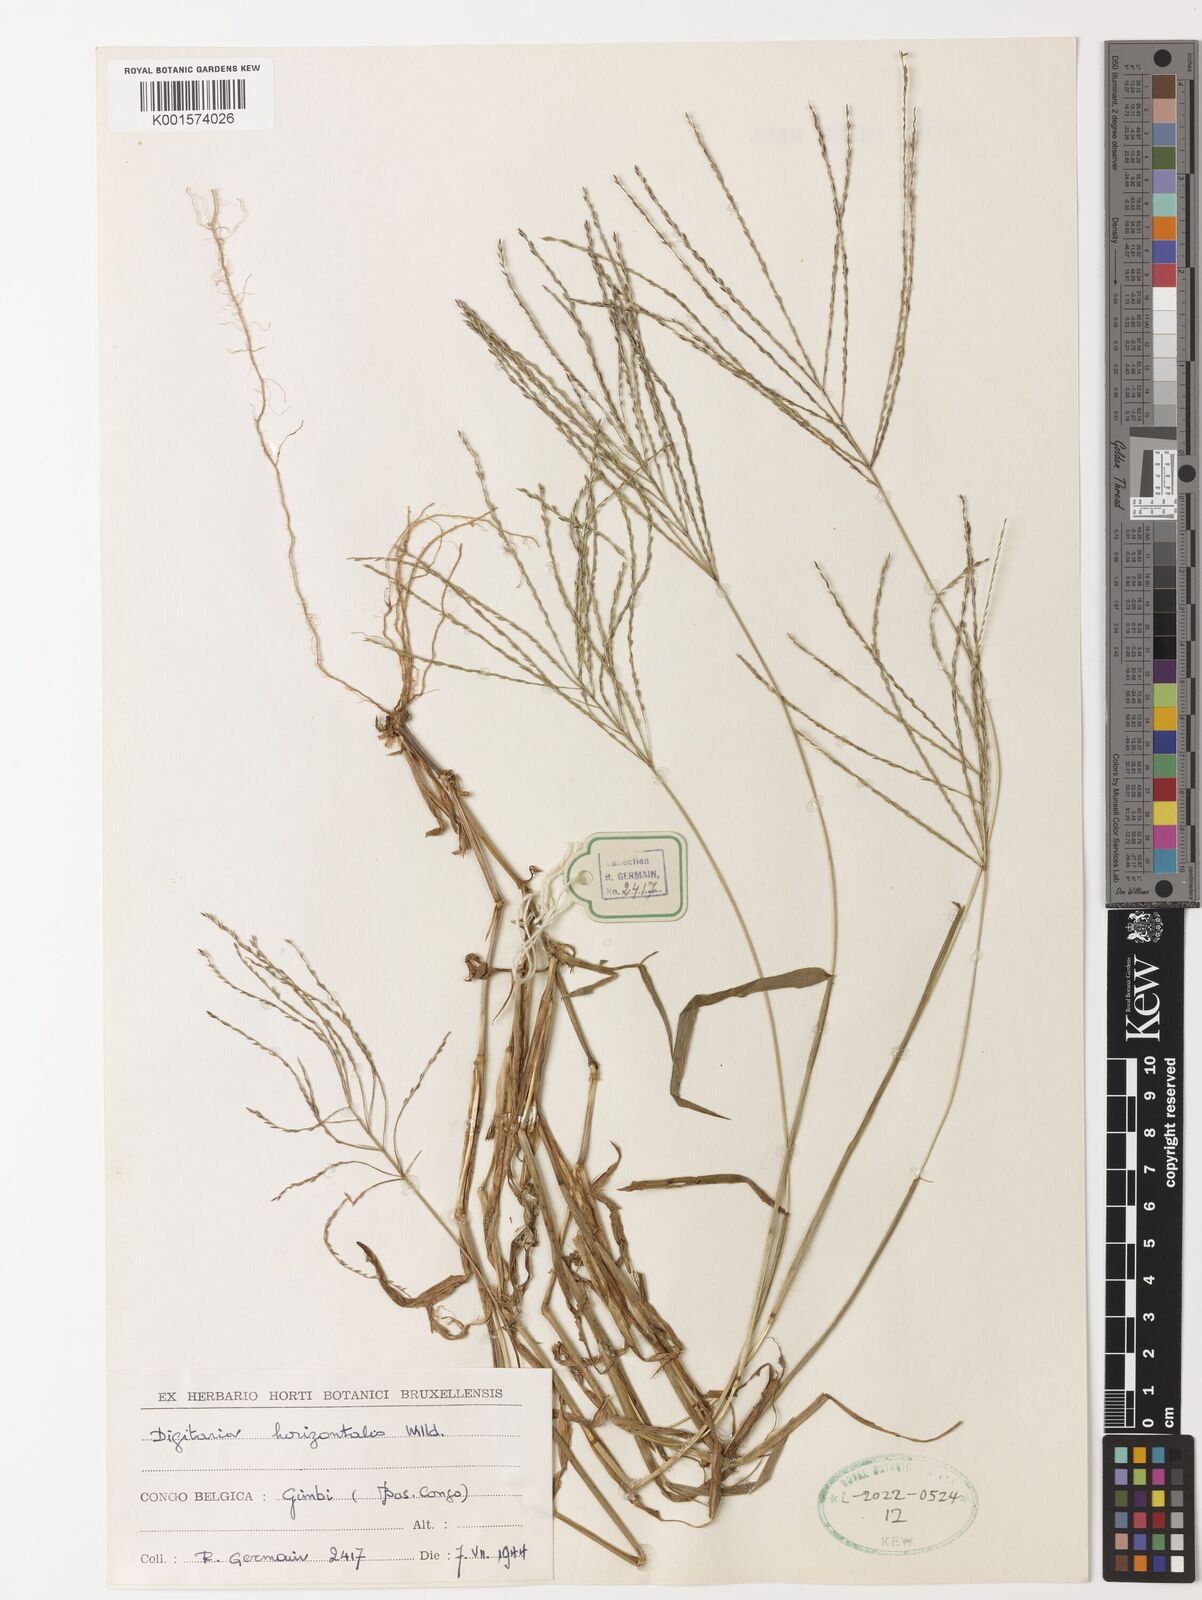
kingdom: Plantae
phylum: Tracheophyta
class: Liliopsida
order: Poales
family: Poaceae
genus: Digitaria
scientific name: Digitaria horizontalis
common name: Jamaican crabgrass
